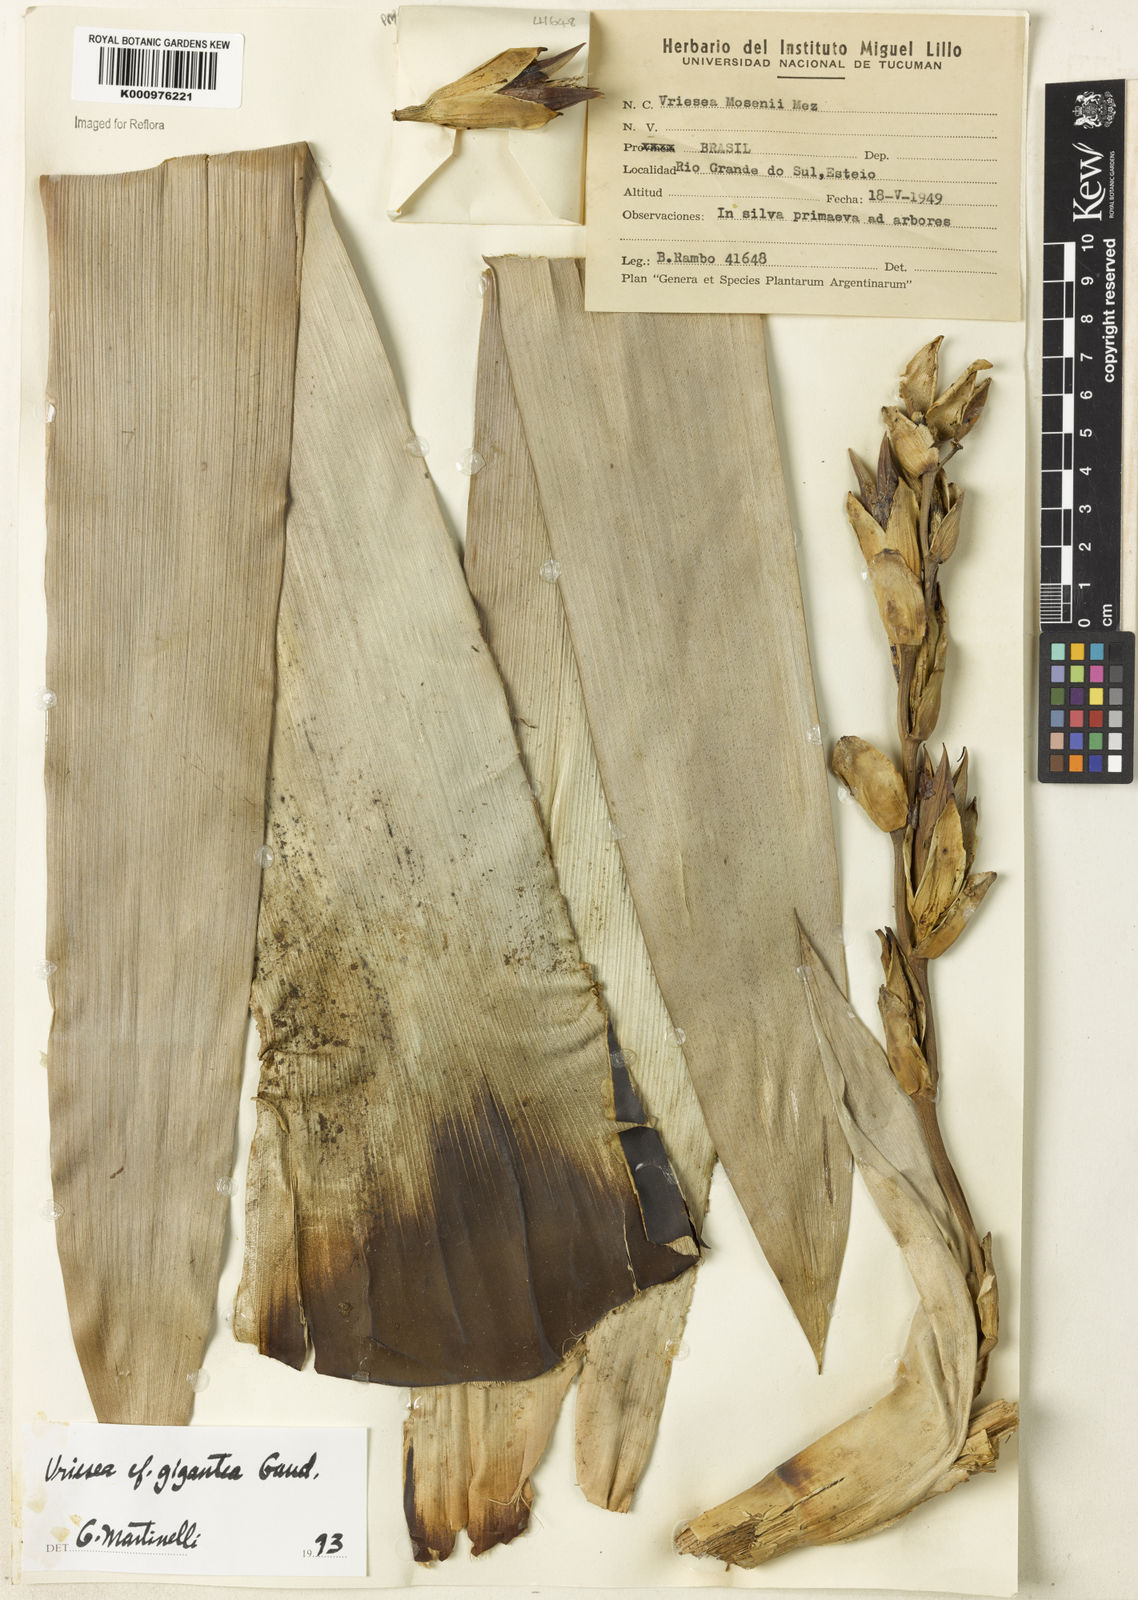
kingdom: Plantae
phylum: Tracheophyta
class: Liliopsida
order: Poales
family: Bromeliaceae
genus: Vriesea
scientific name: Vriesea gigantea
